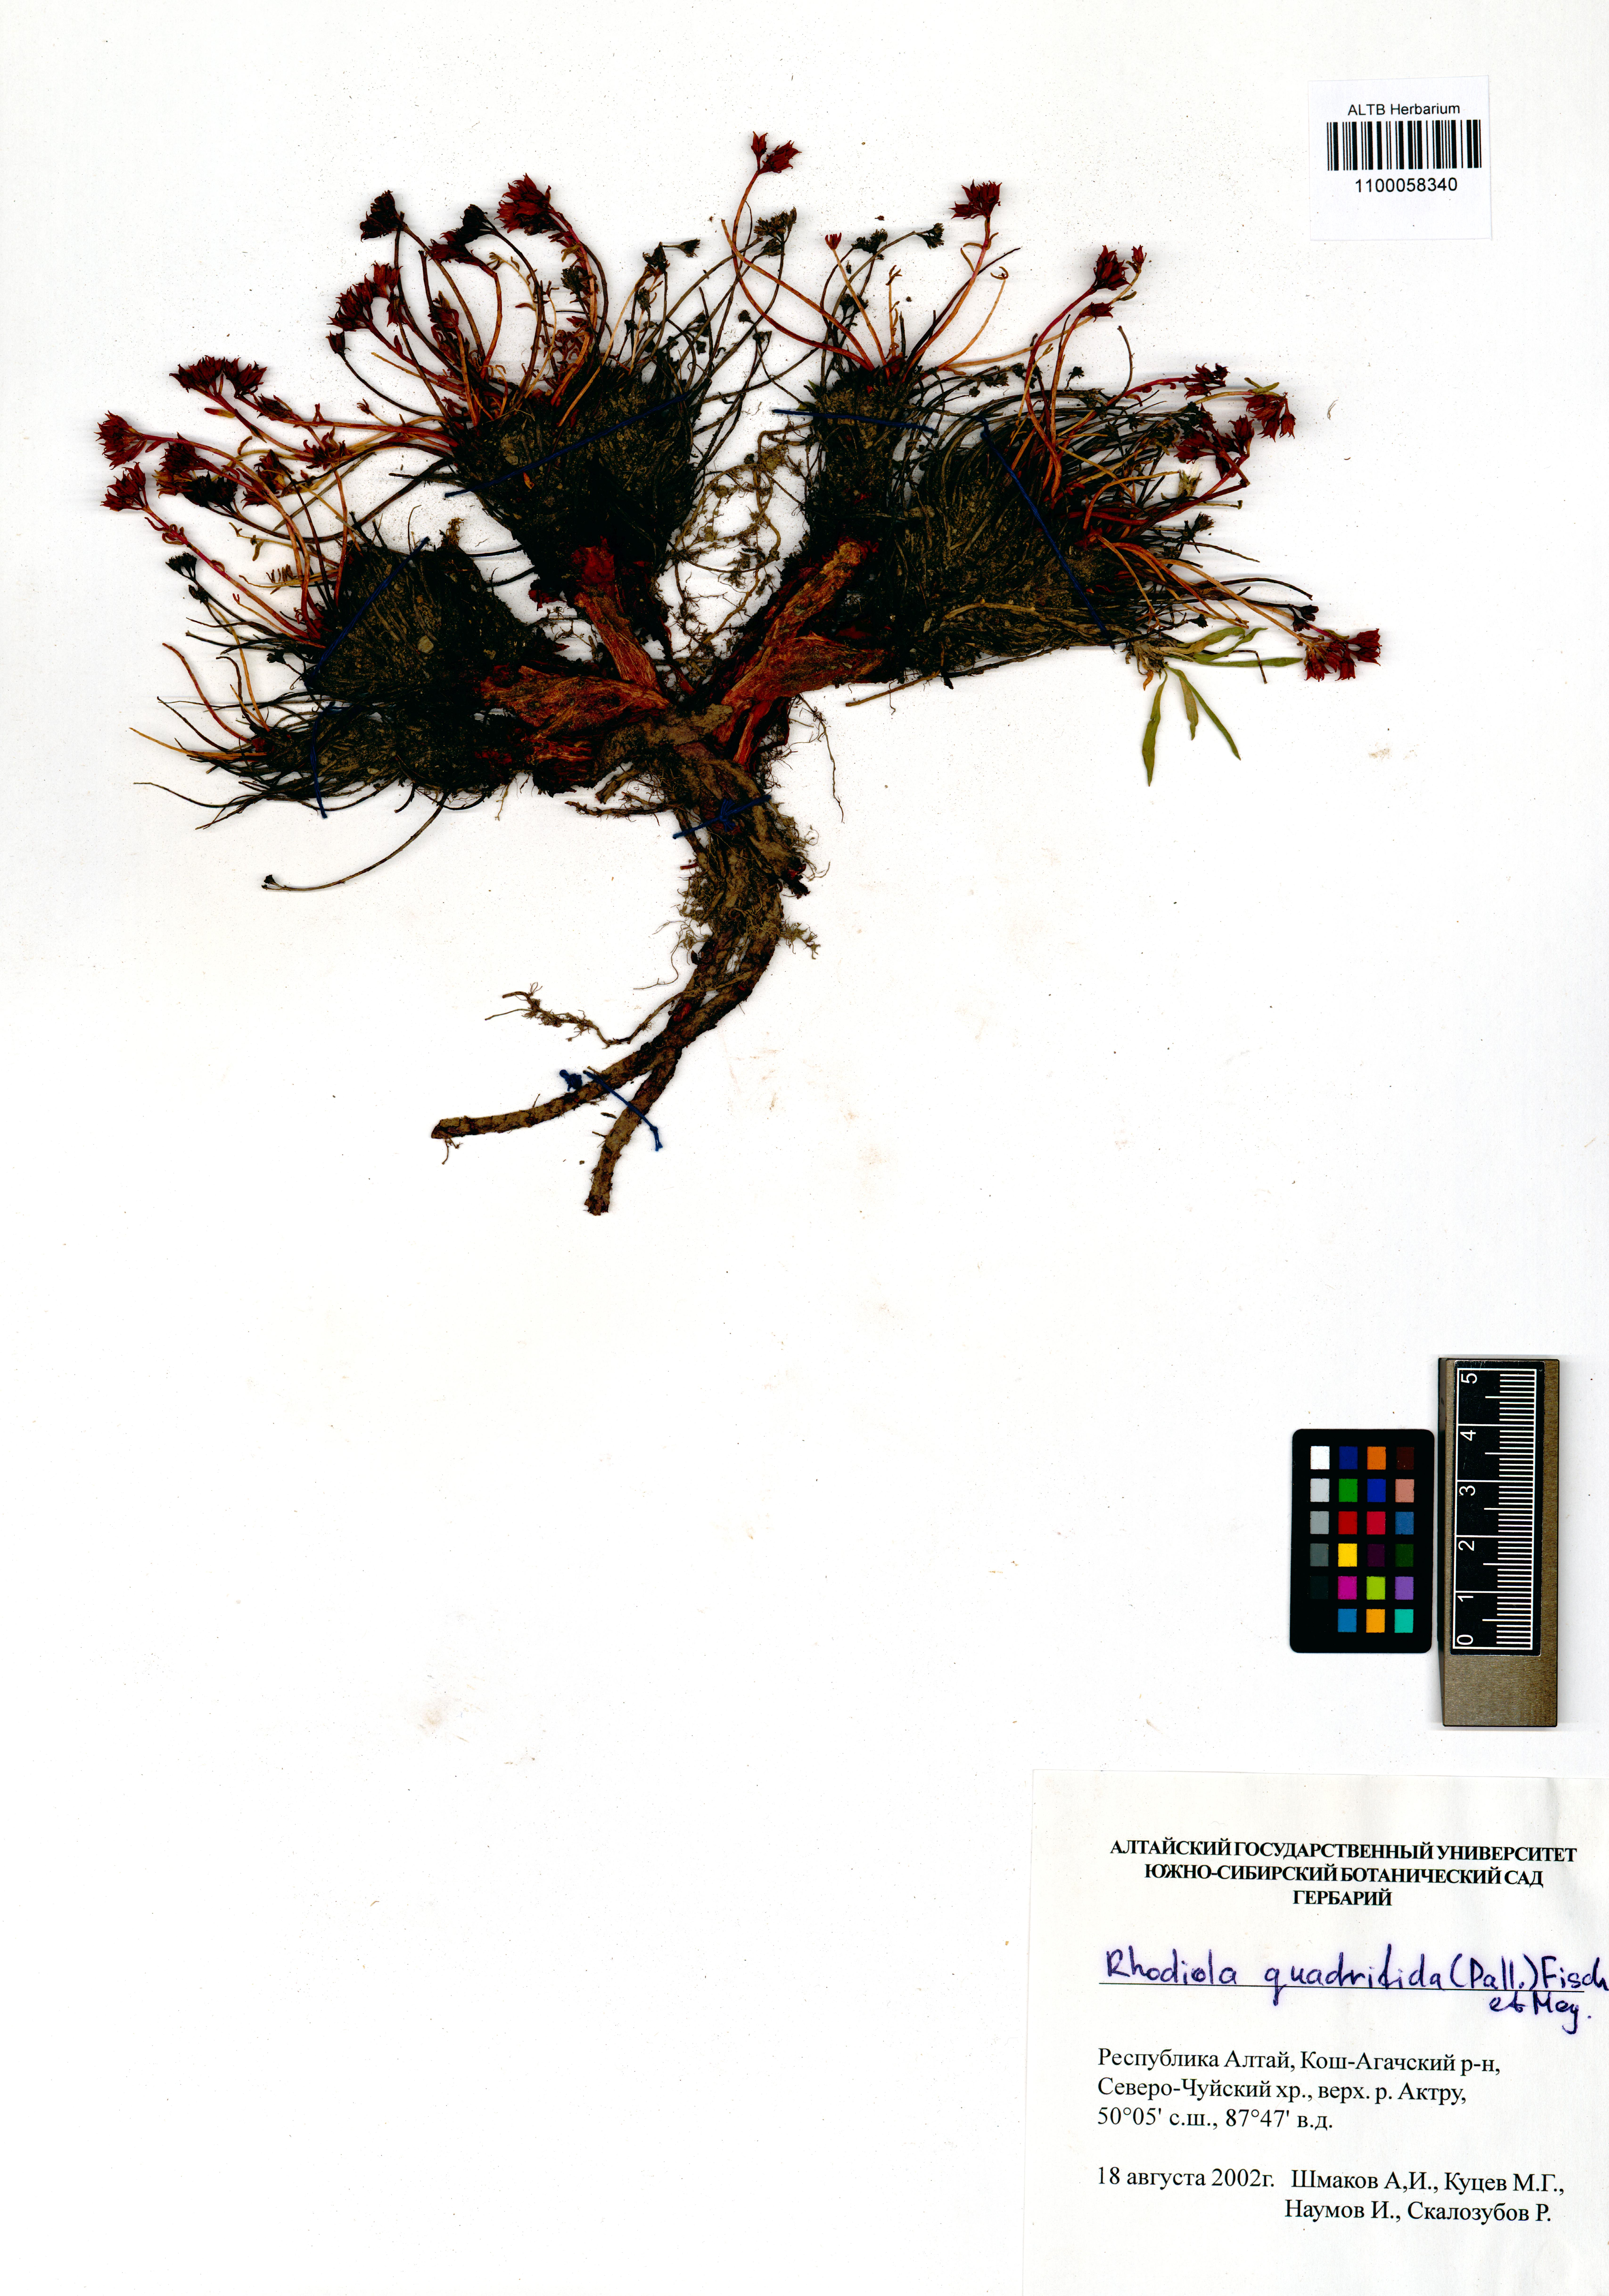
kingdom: Plantae
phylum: Tracheophyta
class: Magnoliopsida
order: Saxifragales
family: Crassulaceae
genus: Rhodiola
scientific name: Rhodiola quadrifida
